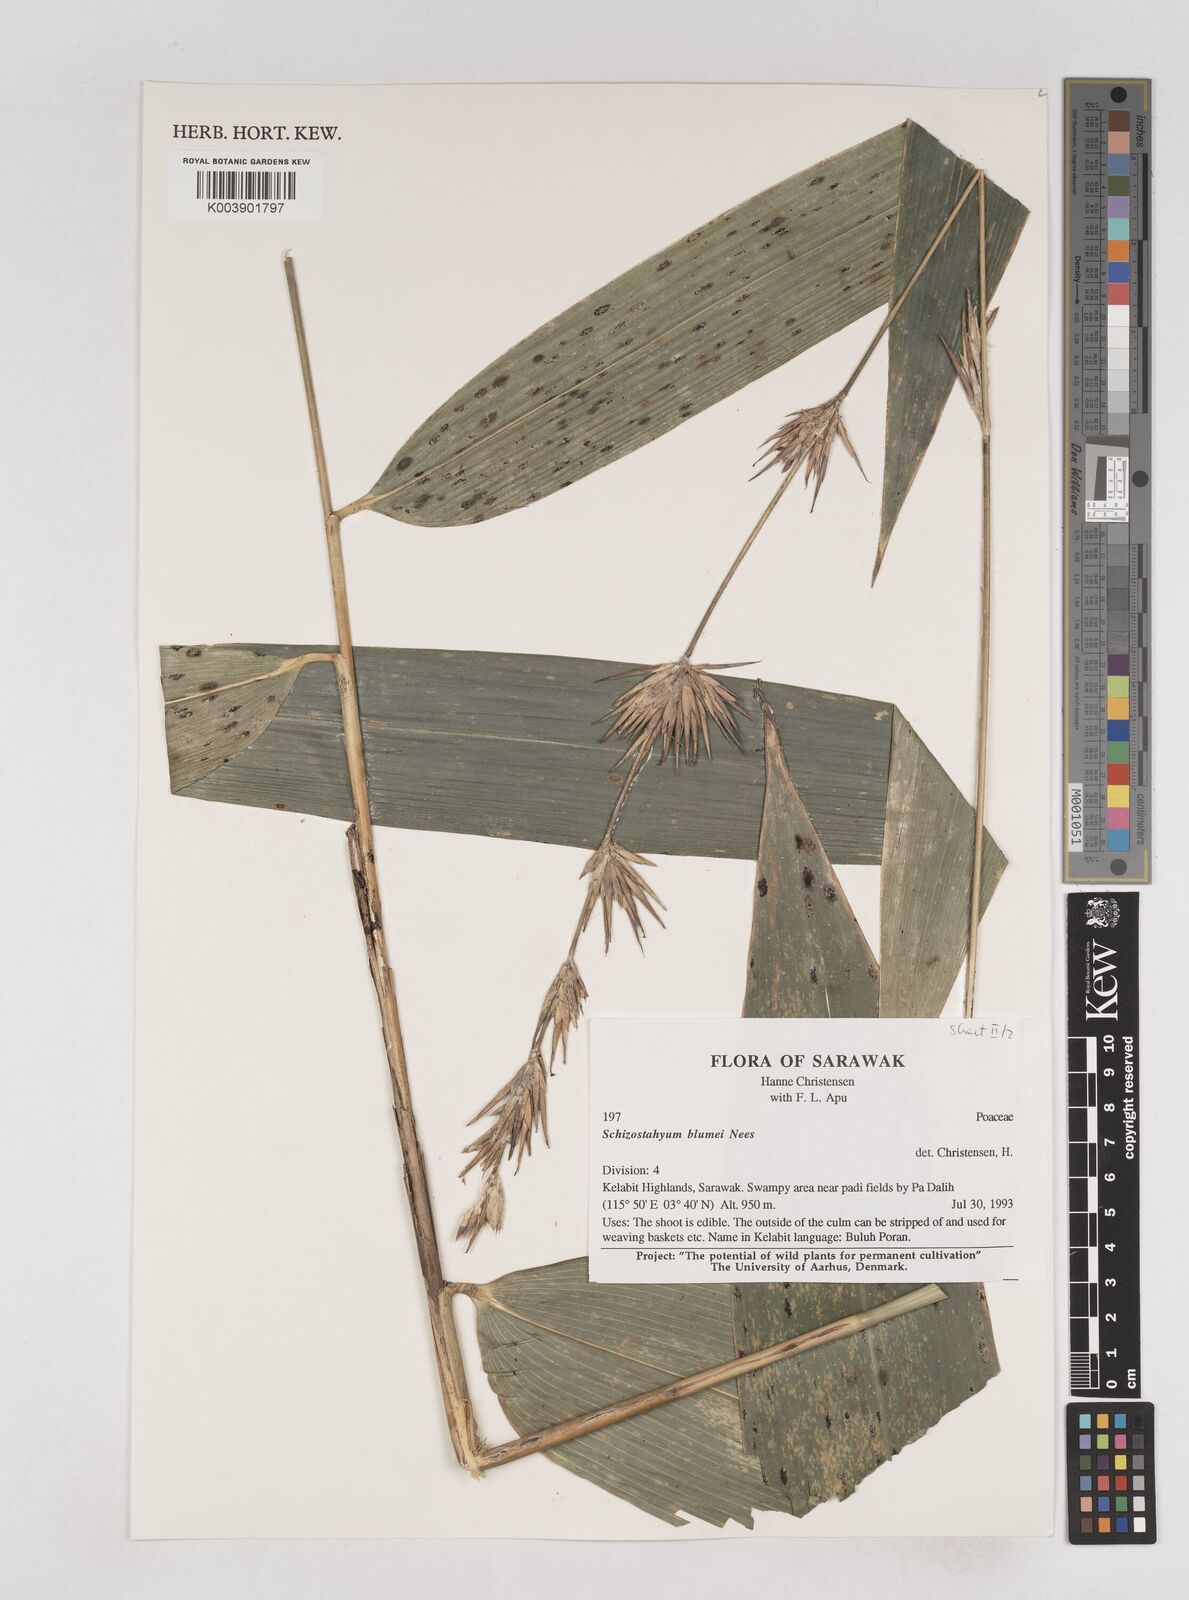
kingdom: Plantae
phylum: Tracheophyta
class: Liliopsida
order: Poales
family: Poaceae
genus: Schizostachyum
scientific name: Schizostachyum blumei
